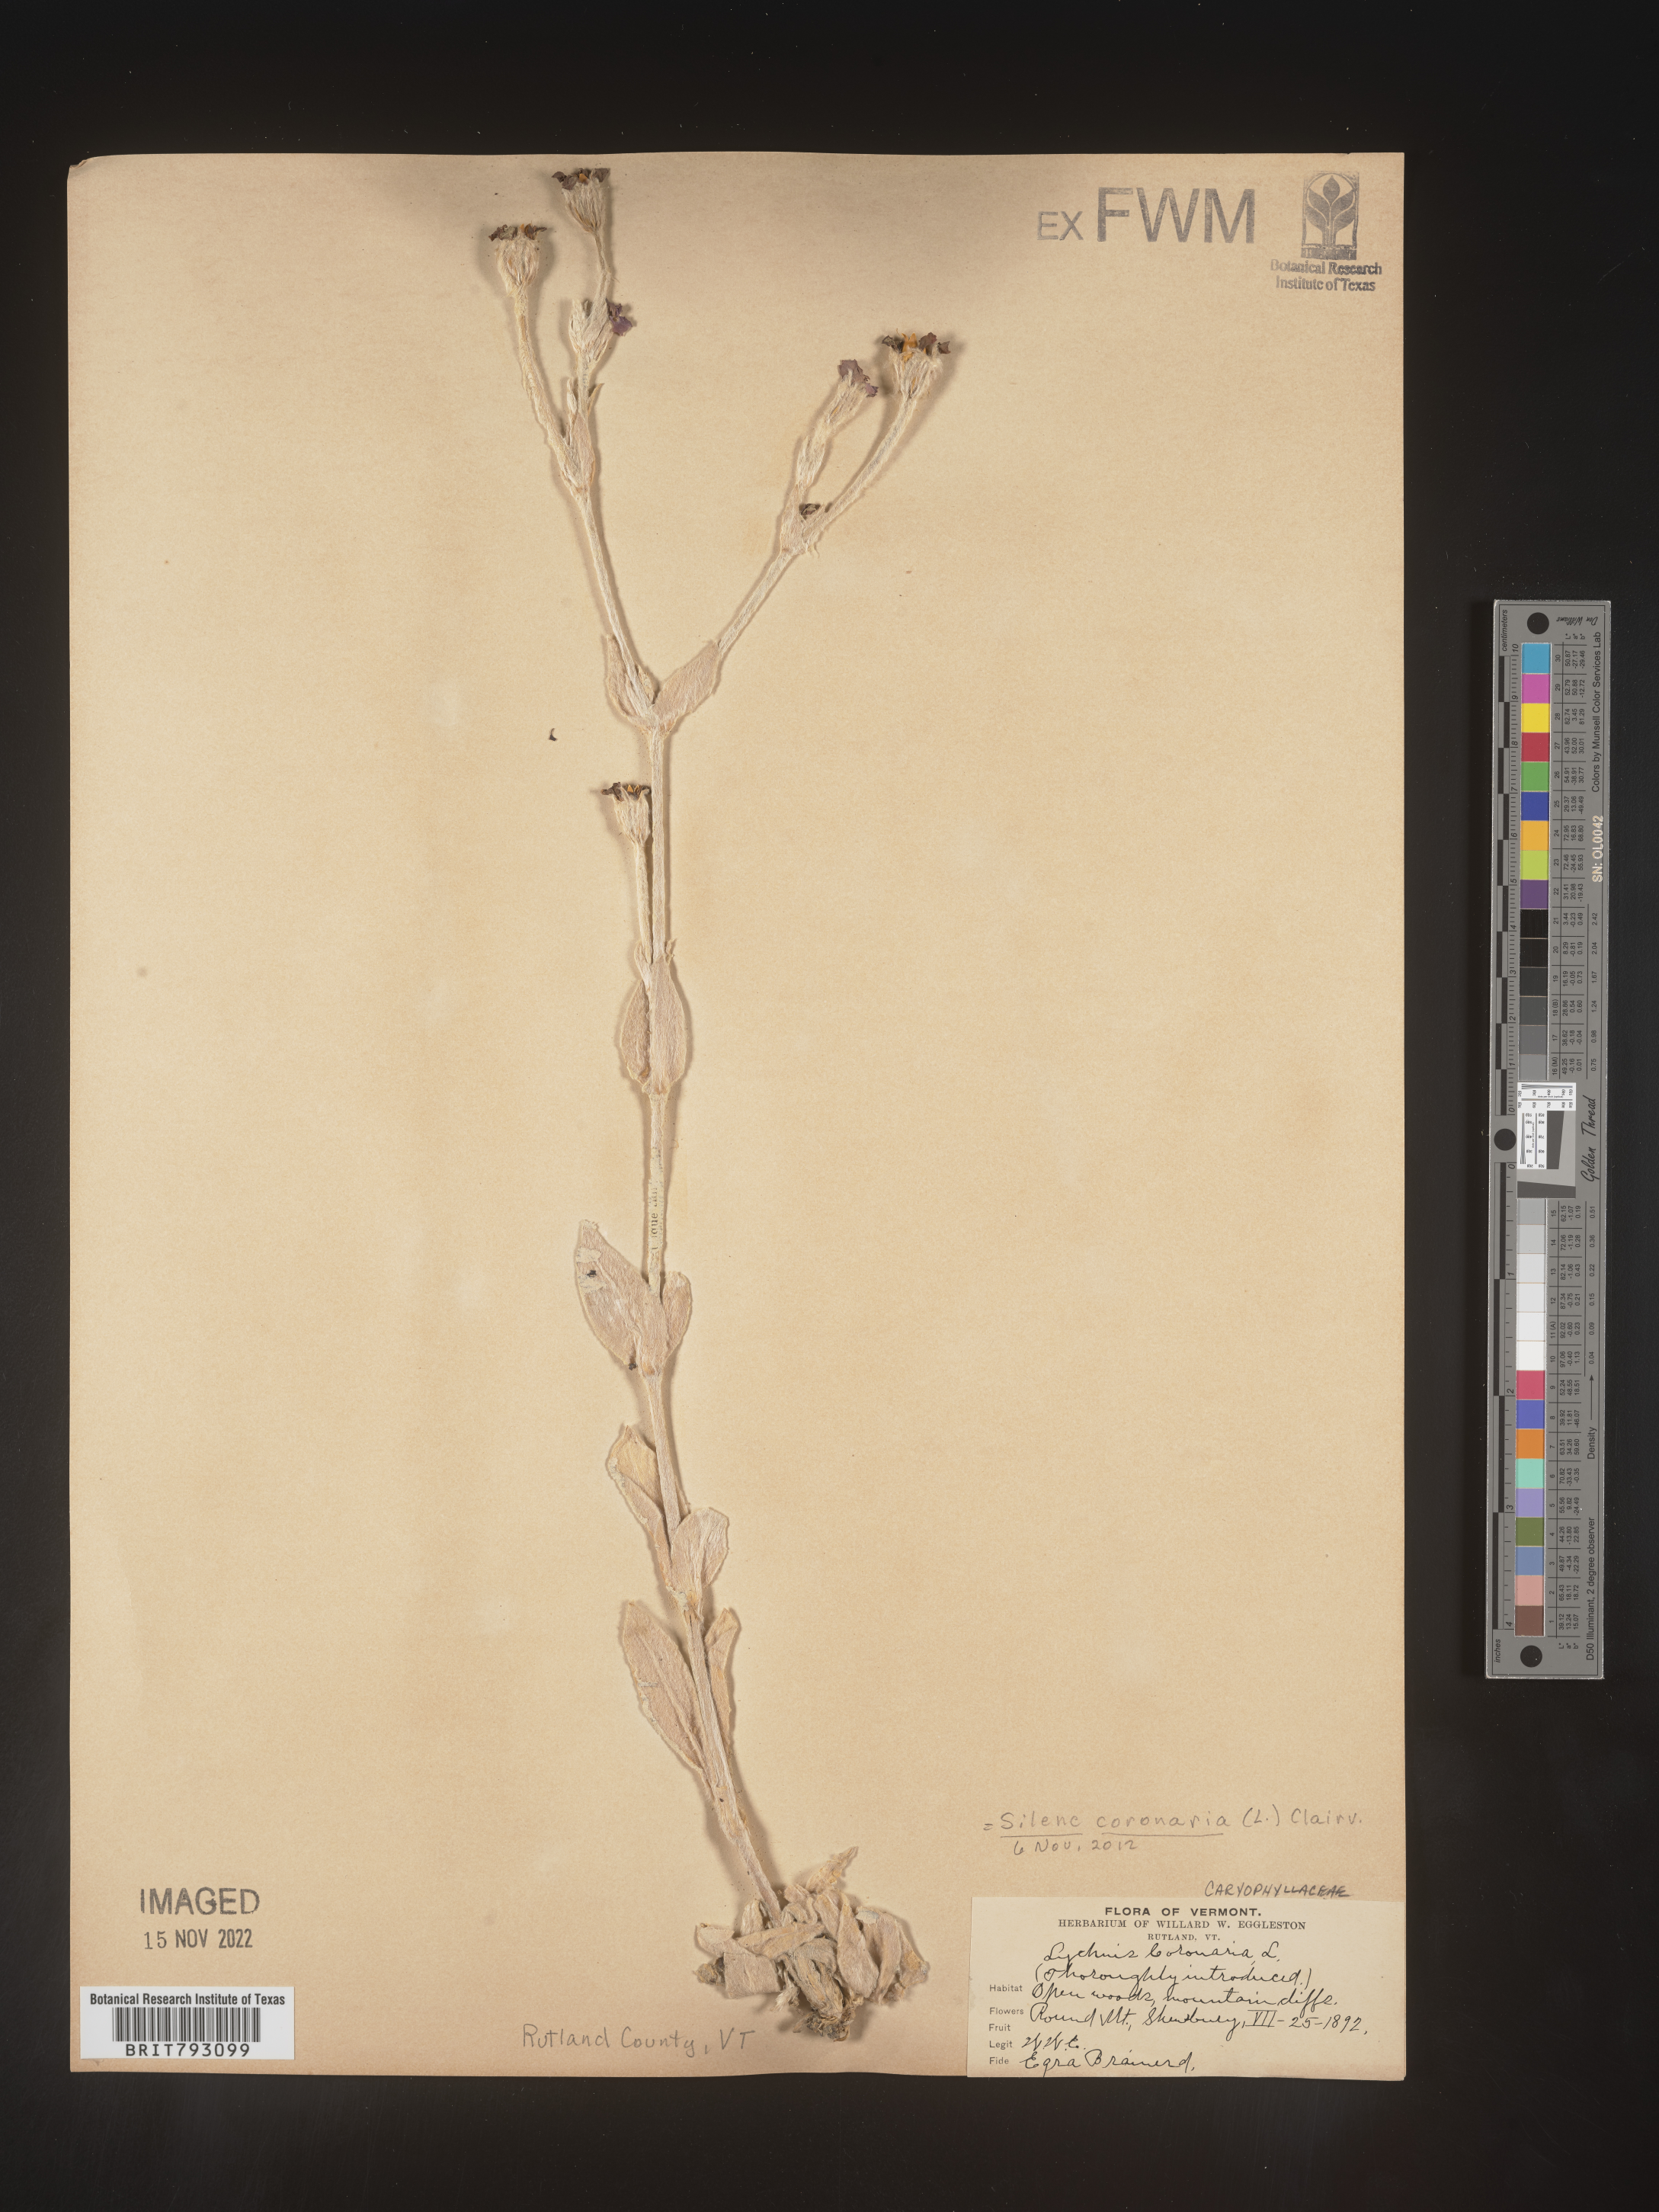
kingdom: Plantae
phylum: Tracheophyta
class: Magnoliopsida
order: Caryophyllales
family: Caryophyllaceae
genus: Silene
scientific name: Silene coronaria
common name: Rose campion
